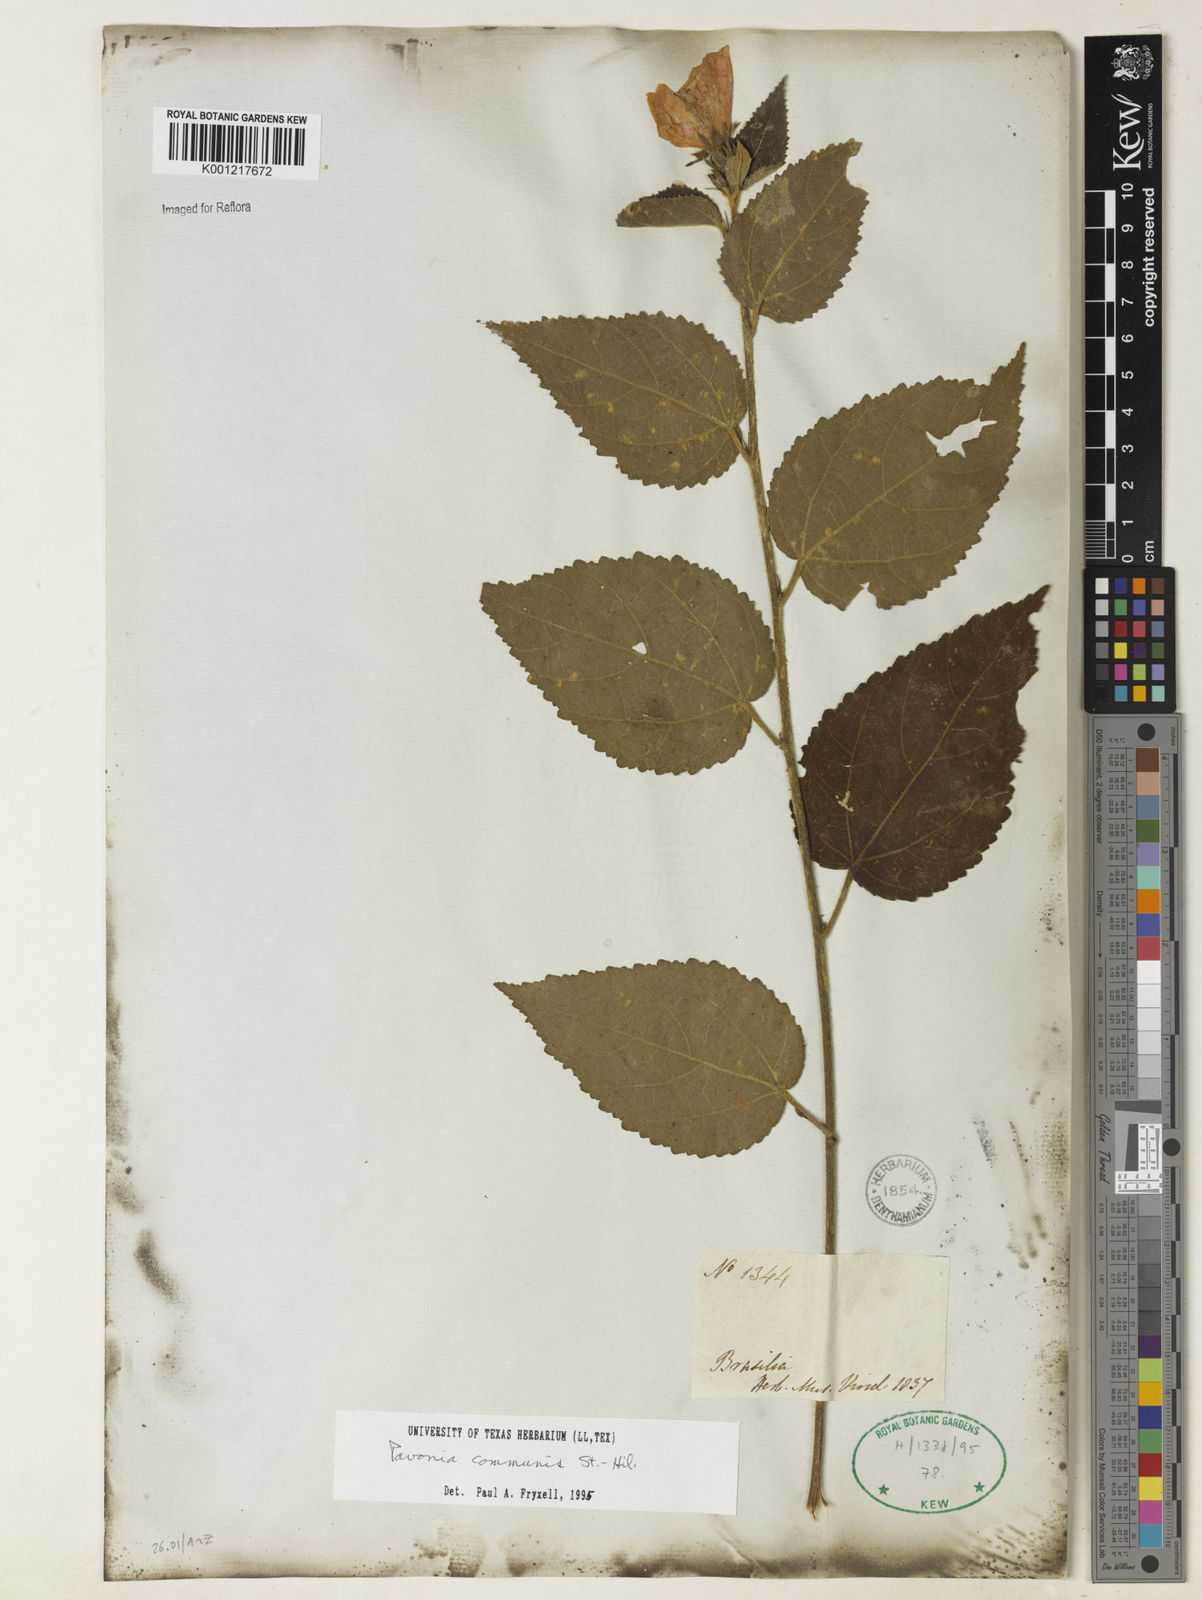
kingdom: Plantae
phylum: Tracheophyta
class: Magnoliopsida
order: Malvales
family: Malvaceae
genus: Pavonia
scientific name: Pavonia communis
